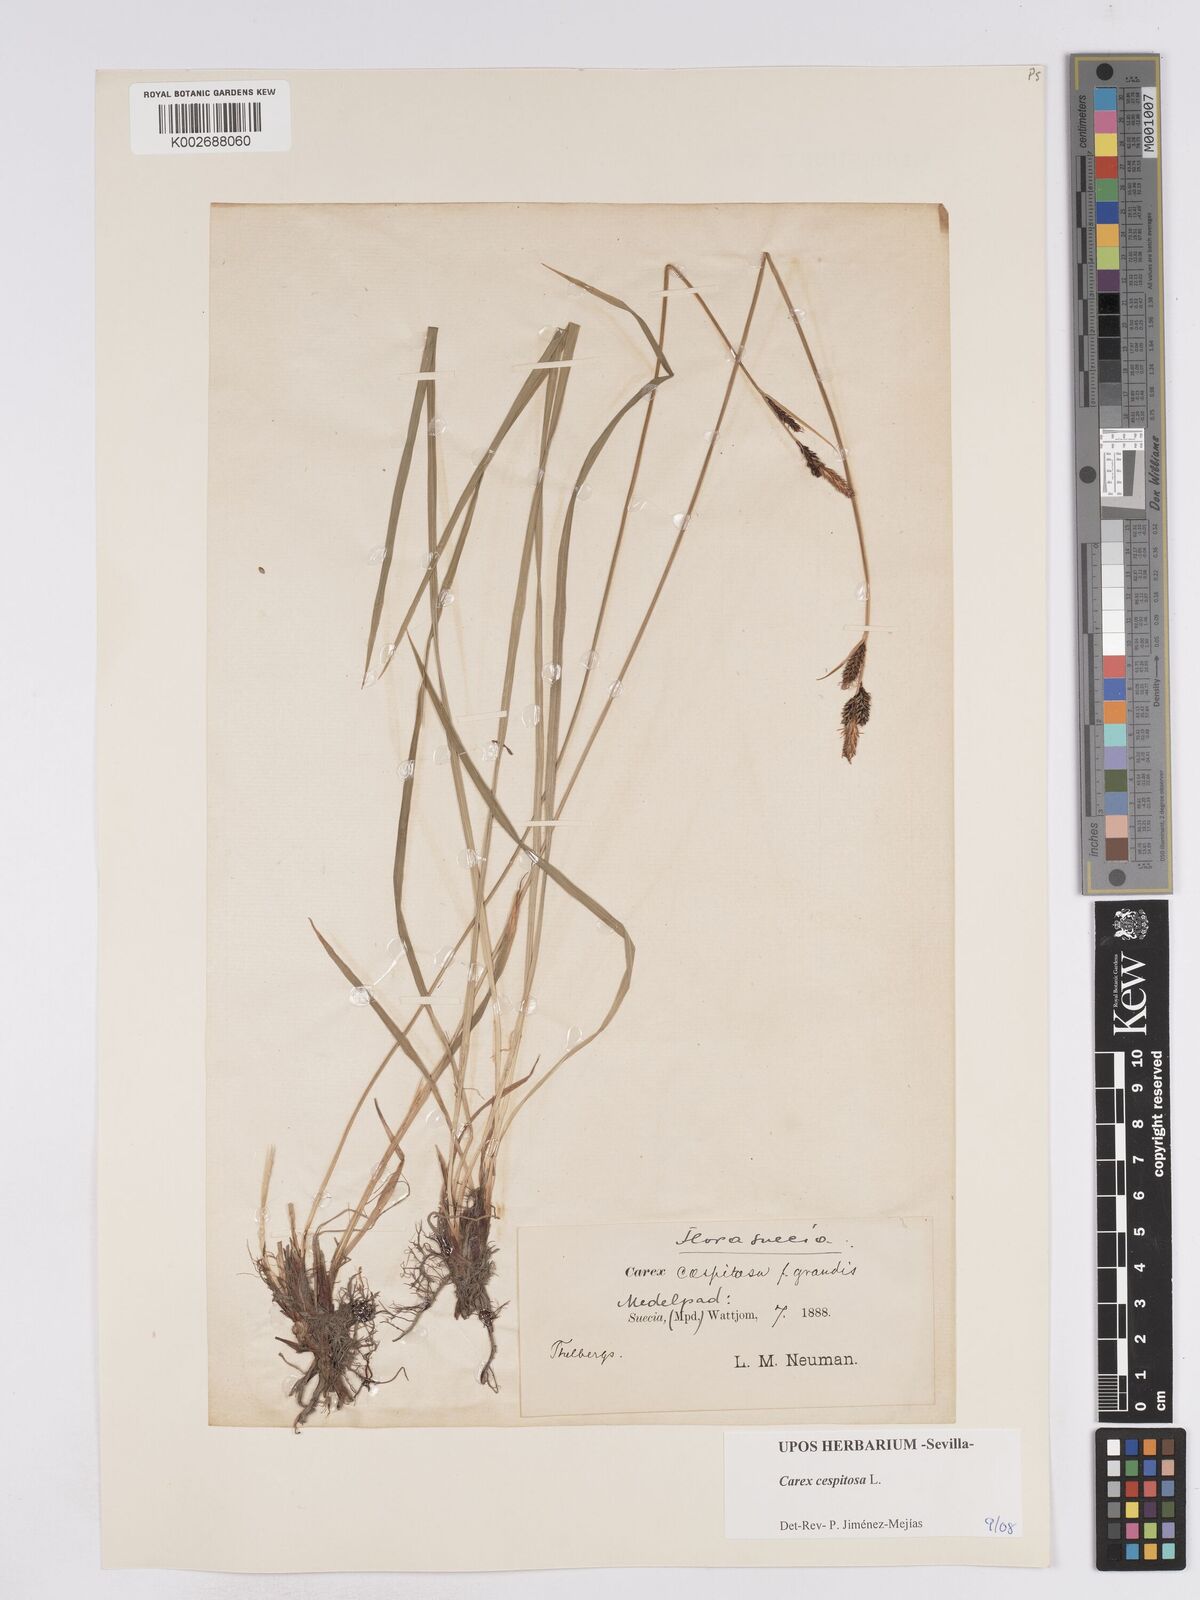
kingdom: Plantae
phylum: Tracheophyta
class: Liliopsida
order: Poales
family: Cyperaceae
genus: Carex
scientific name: Carex
